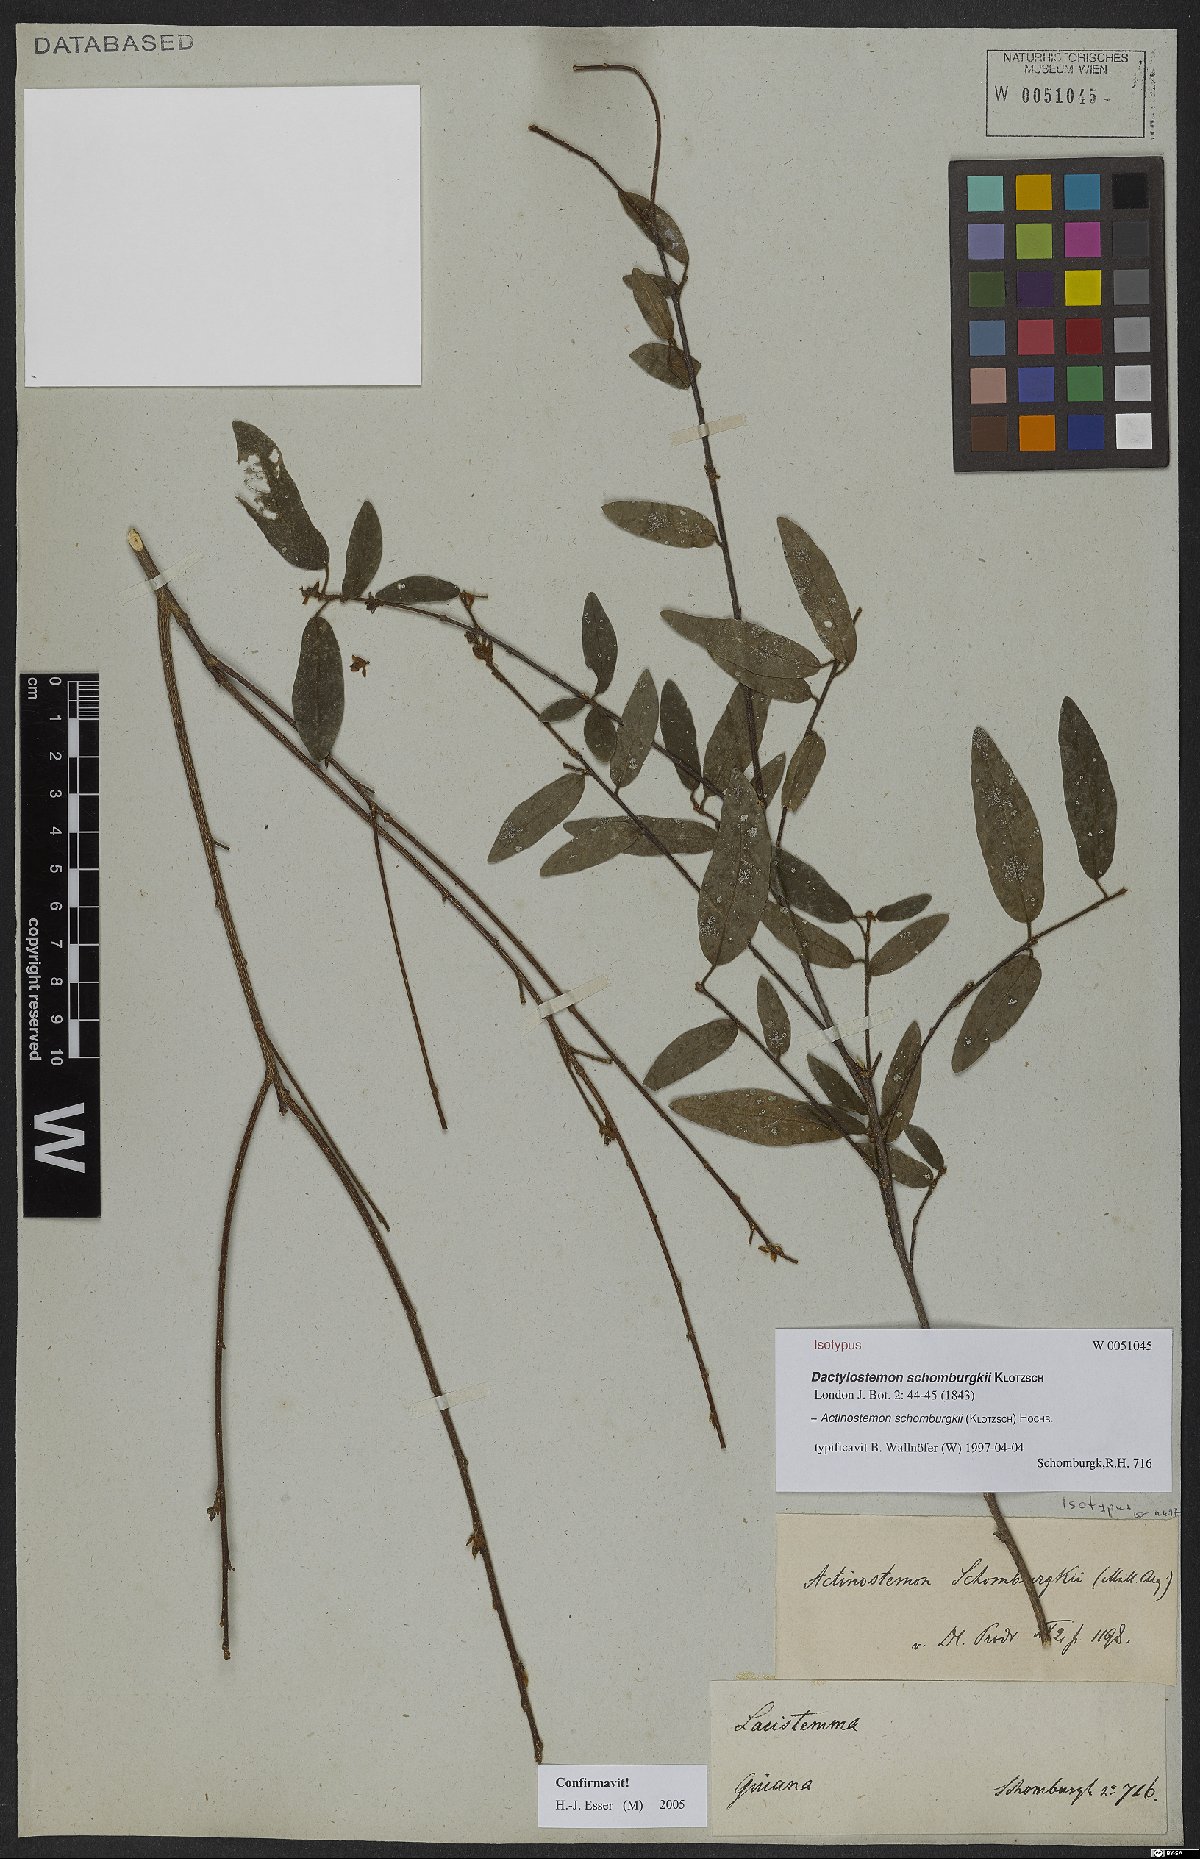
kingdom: Plantae
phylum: Tracheophyta
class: Magnoliopsida
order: Malpighiales
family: Euphorbiaceae
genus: Actinostemon
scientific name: Actinostemon schomburgkii
